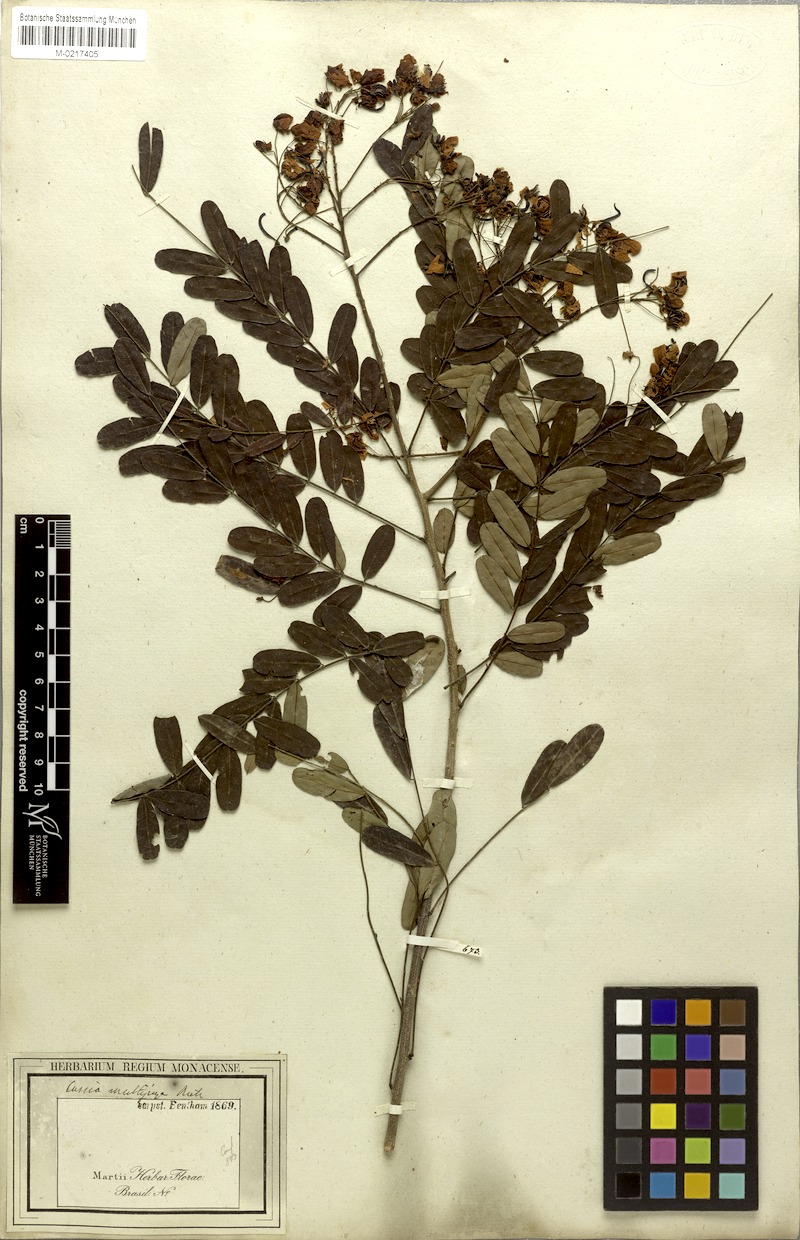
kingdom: Plantae
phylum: Tracheophyta
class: Magnoliopsida
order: Fabales
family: Fabaceae
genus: Senna
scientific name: Senna multijuga
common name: False sicklepod
